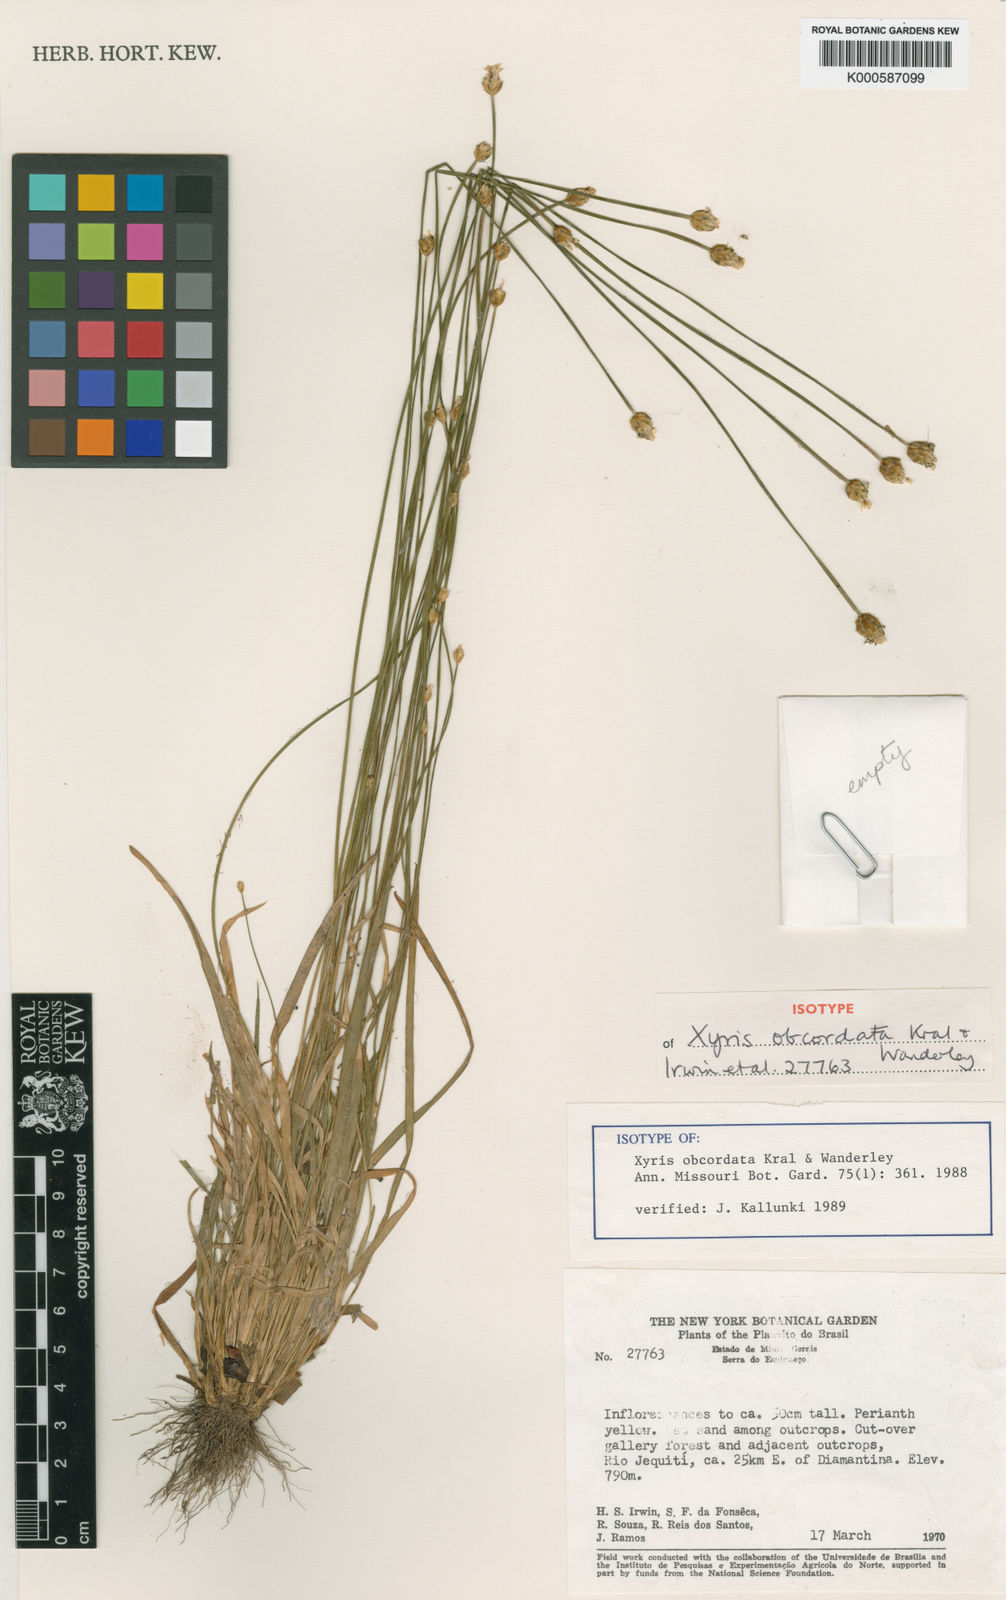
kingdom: Plantae
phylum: Tracheophyta
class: Liliopsida
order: Poales
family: Xyridaceae
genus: Xyris
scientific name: Xyris obcordata
